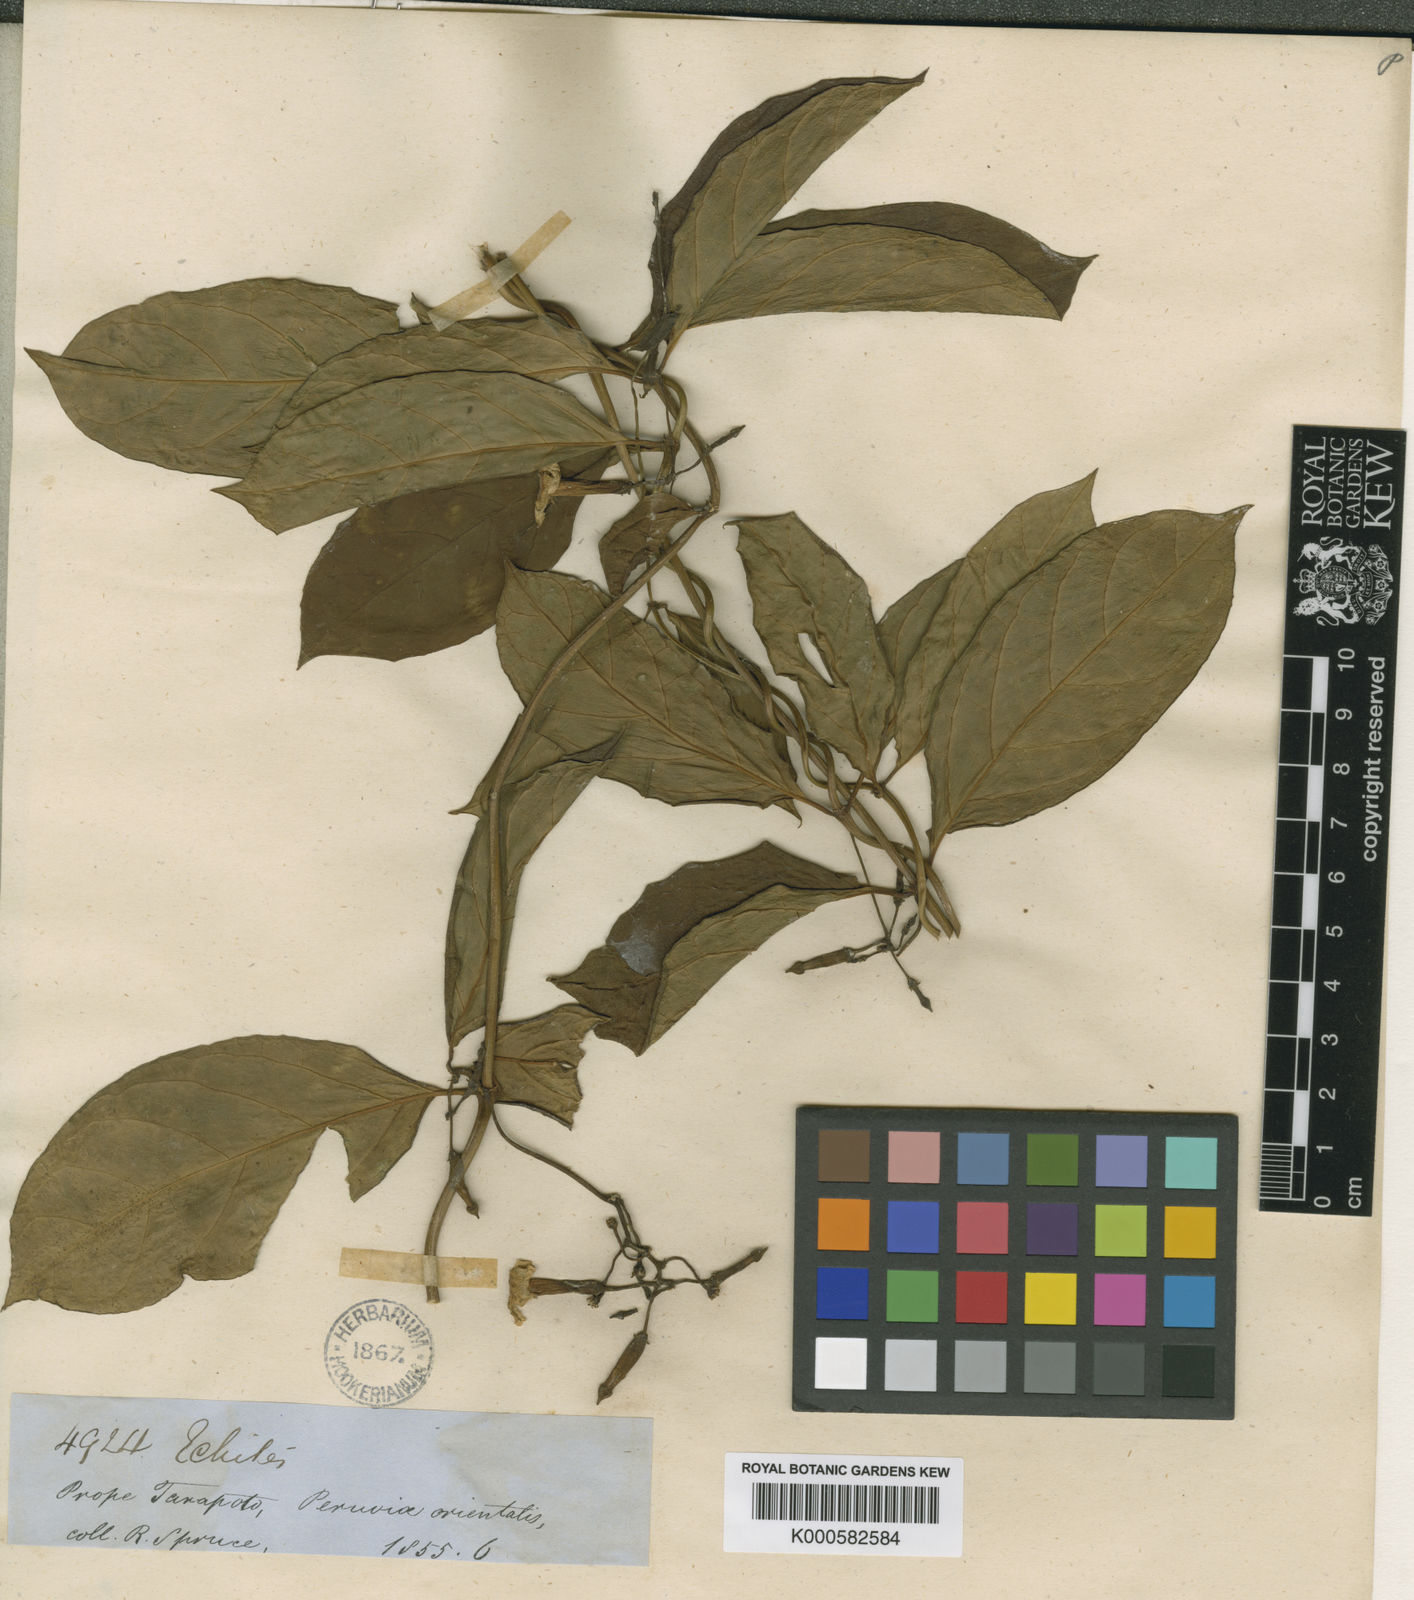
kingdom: Plantae
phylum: Tracheophyta
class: Magnoliopsida
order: Gentianales
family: Apocynaceae
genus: Prestonia
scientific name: Prestonia quinquangularis
